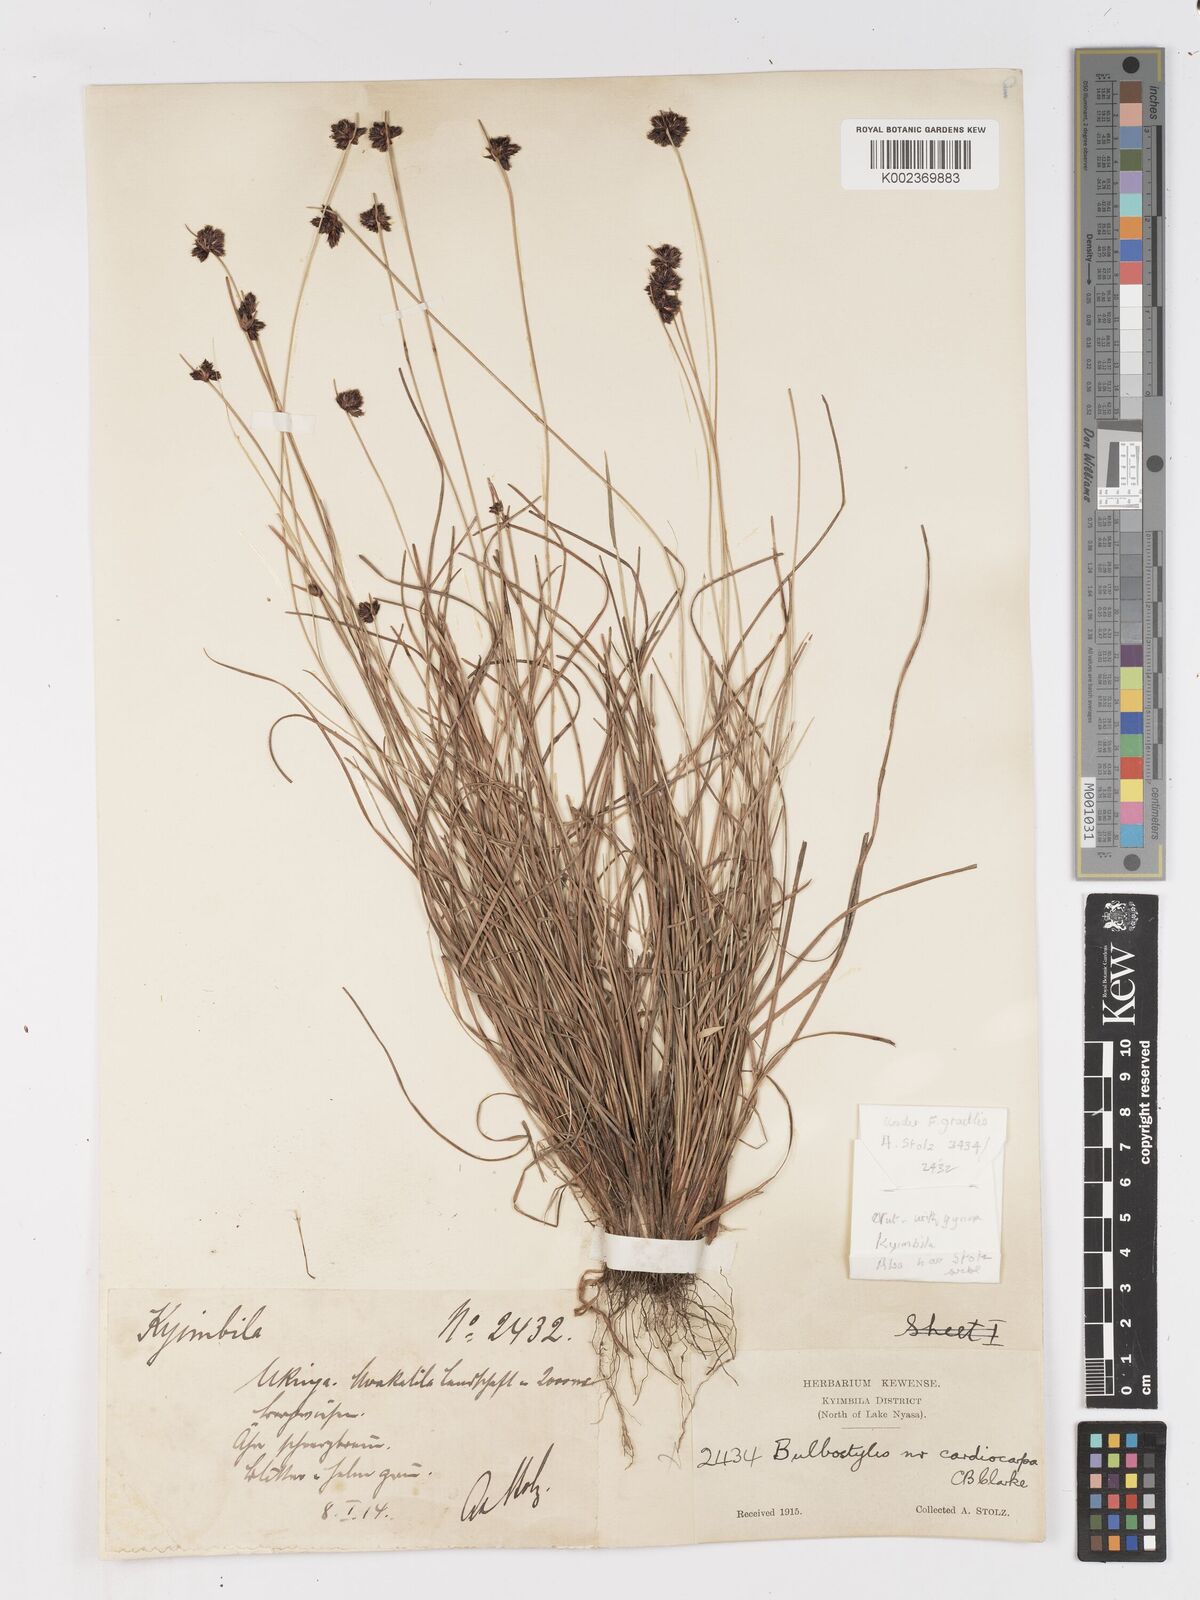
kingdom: Plantae
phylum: Tracheophyta
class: Liliopsida
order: Poales
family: Cyperaceae
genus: Ficinia
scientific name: Ficinia gracilis
